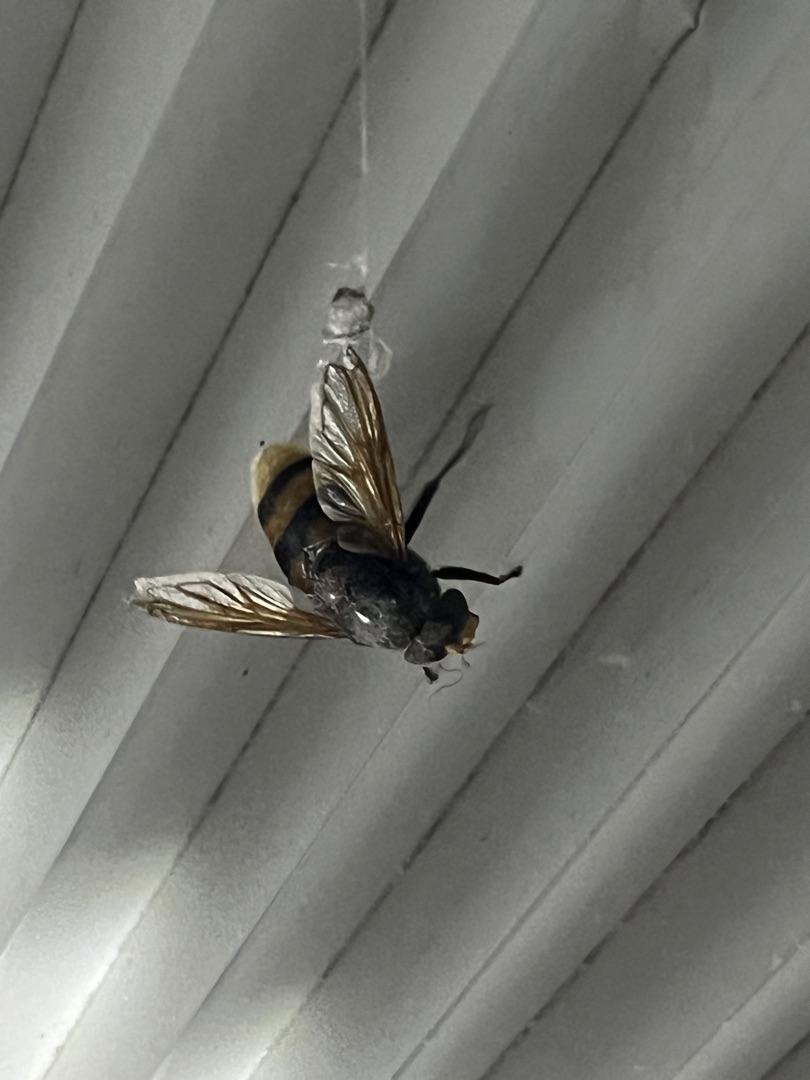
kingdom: Animalia
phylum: Arthropoda
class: Insecta
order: Diptera
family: Syrphidae
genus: Volucella
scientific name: Volucella zonaria
